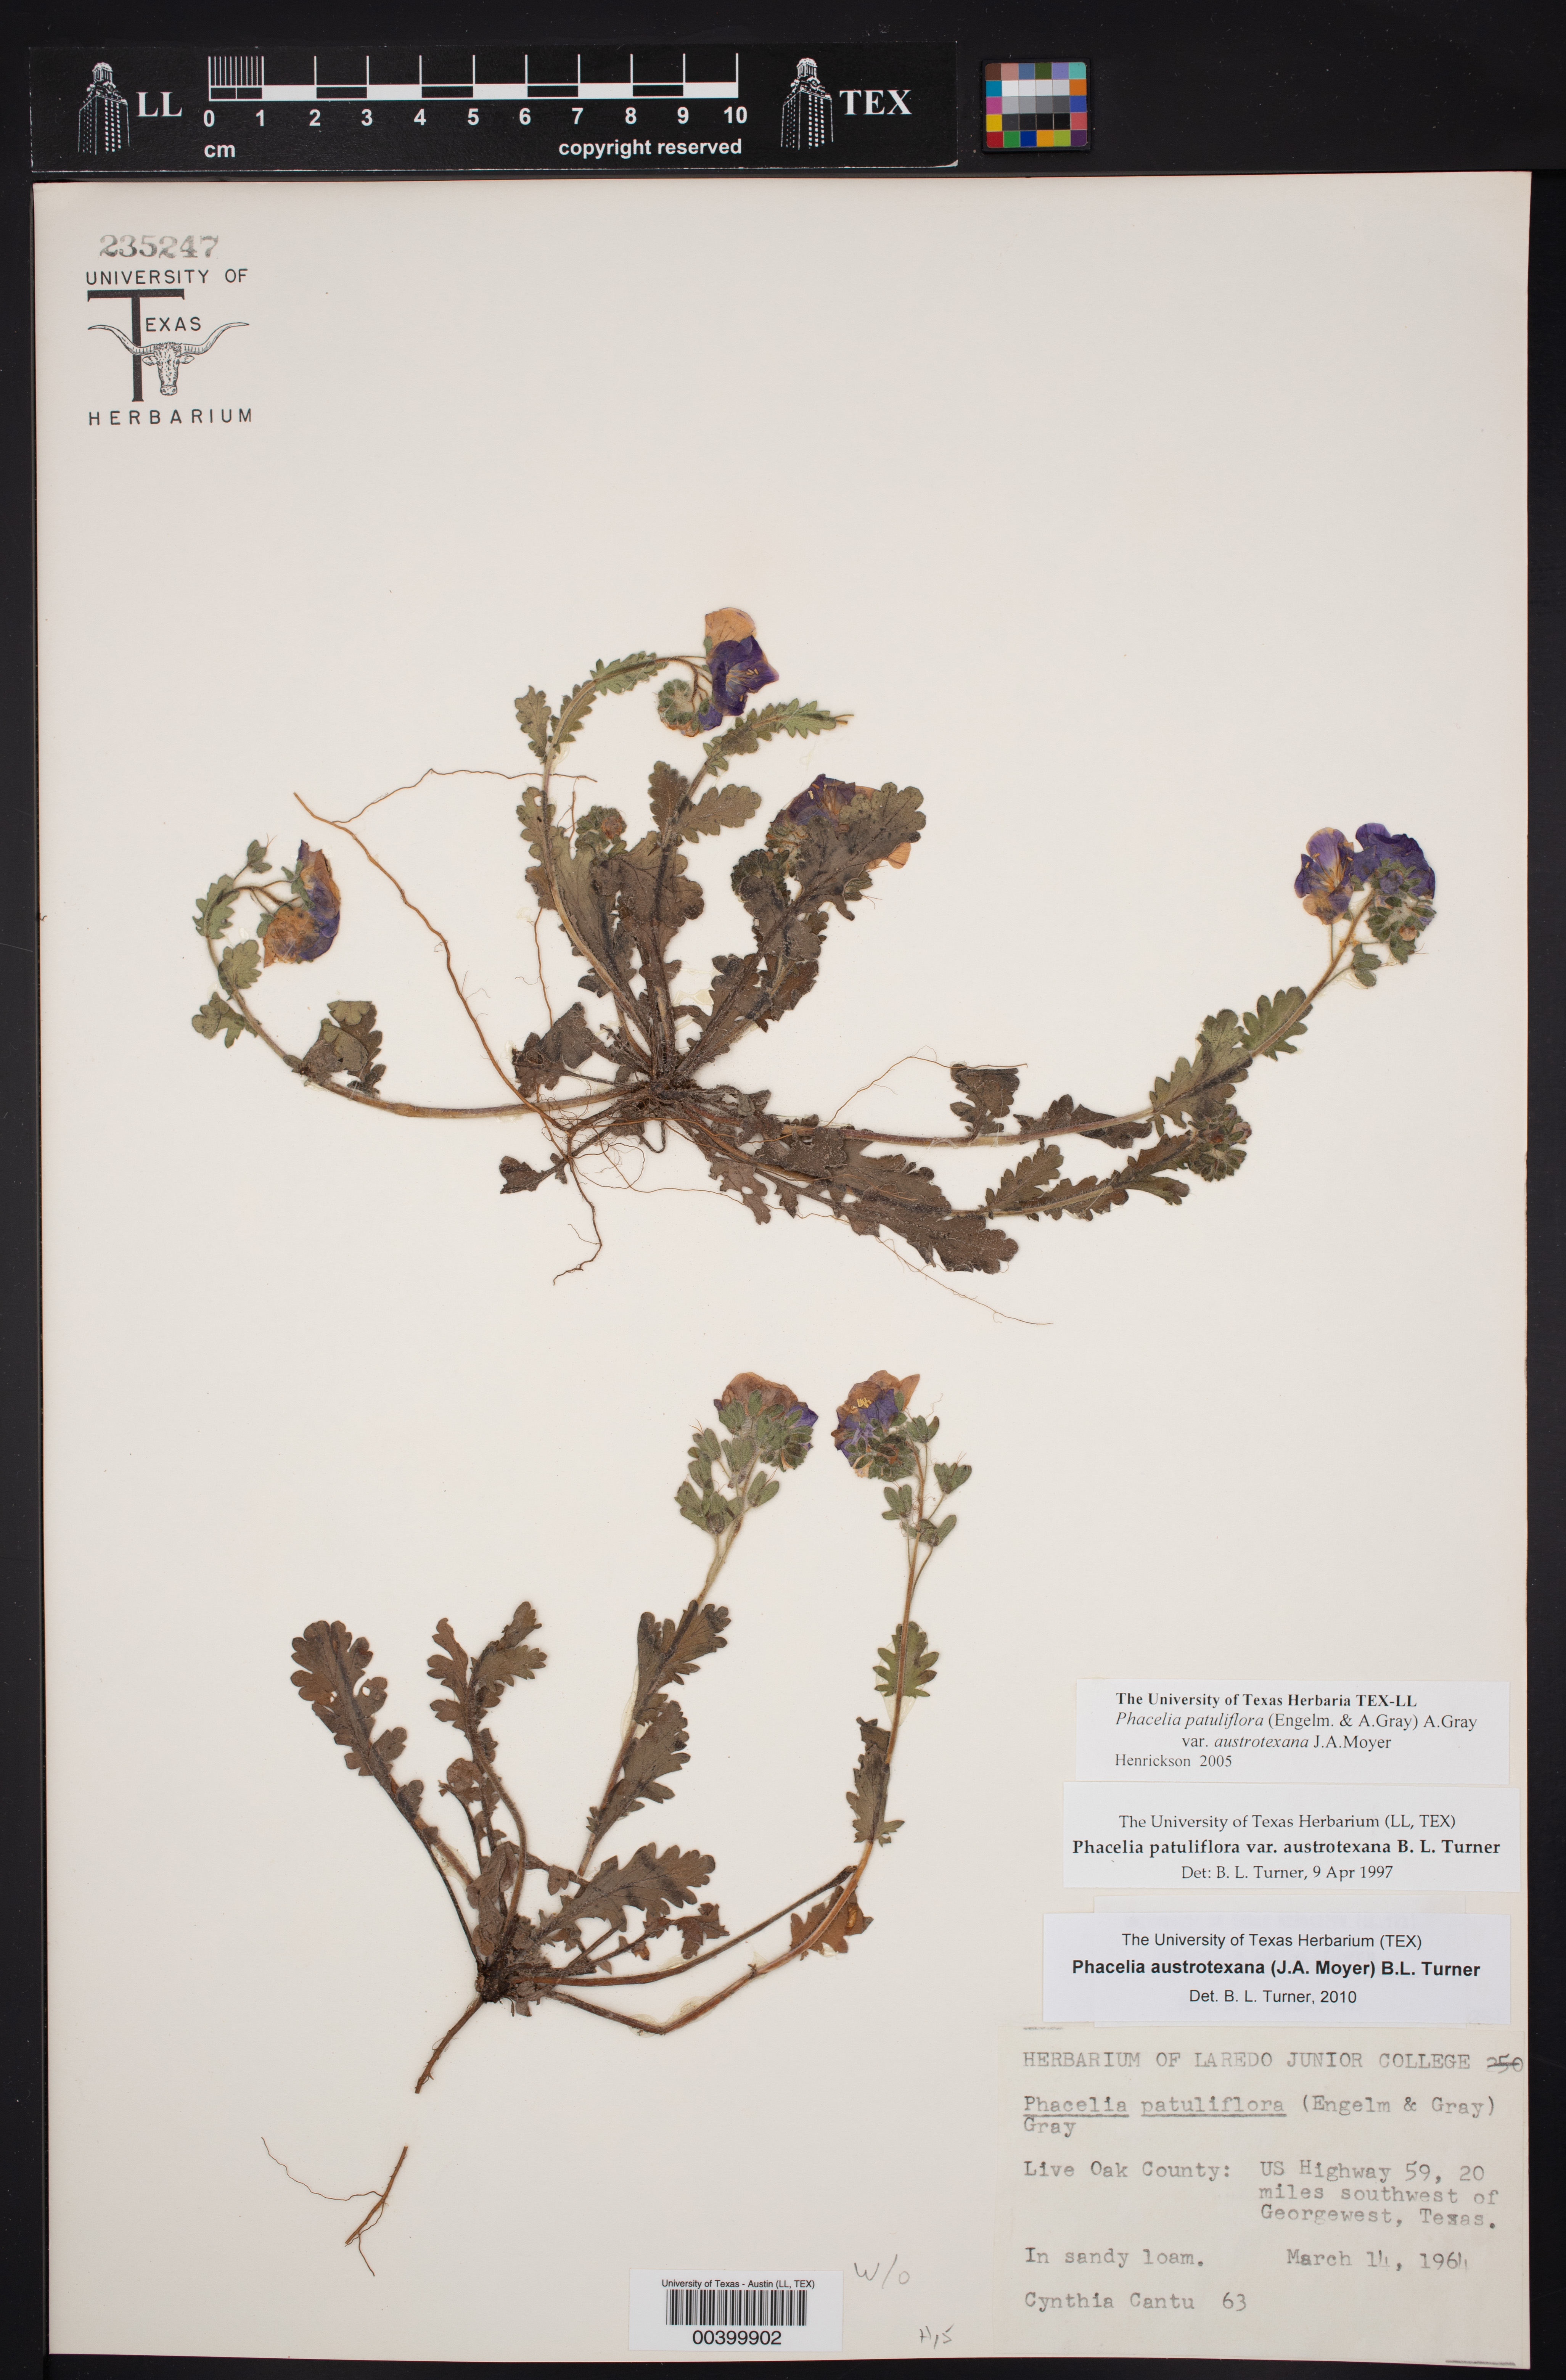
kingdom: Plantae
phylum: Tracheophyta
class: Magnoliopsida
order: Boraginales
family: Hydrophyllaceae
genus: Phacelia
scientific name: Phacelia austrotexana
